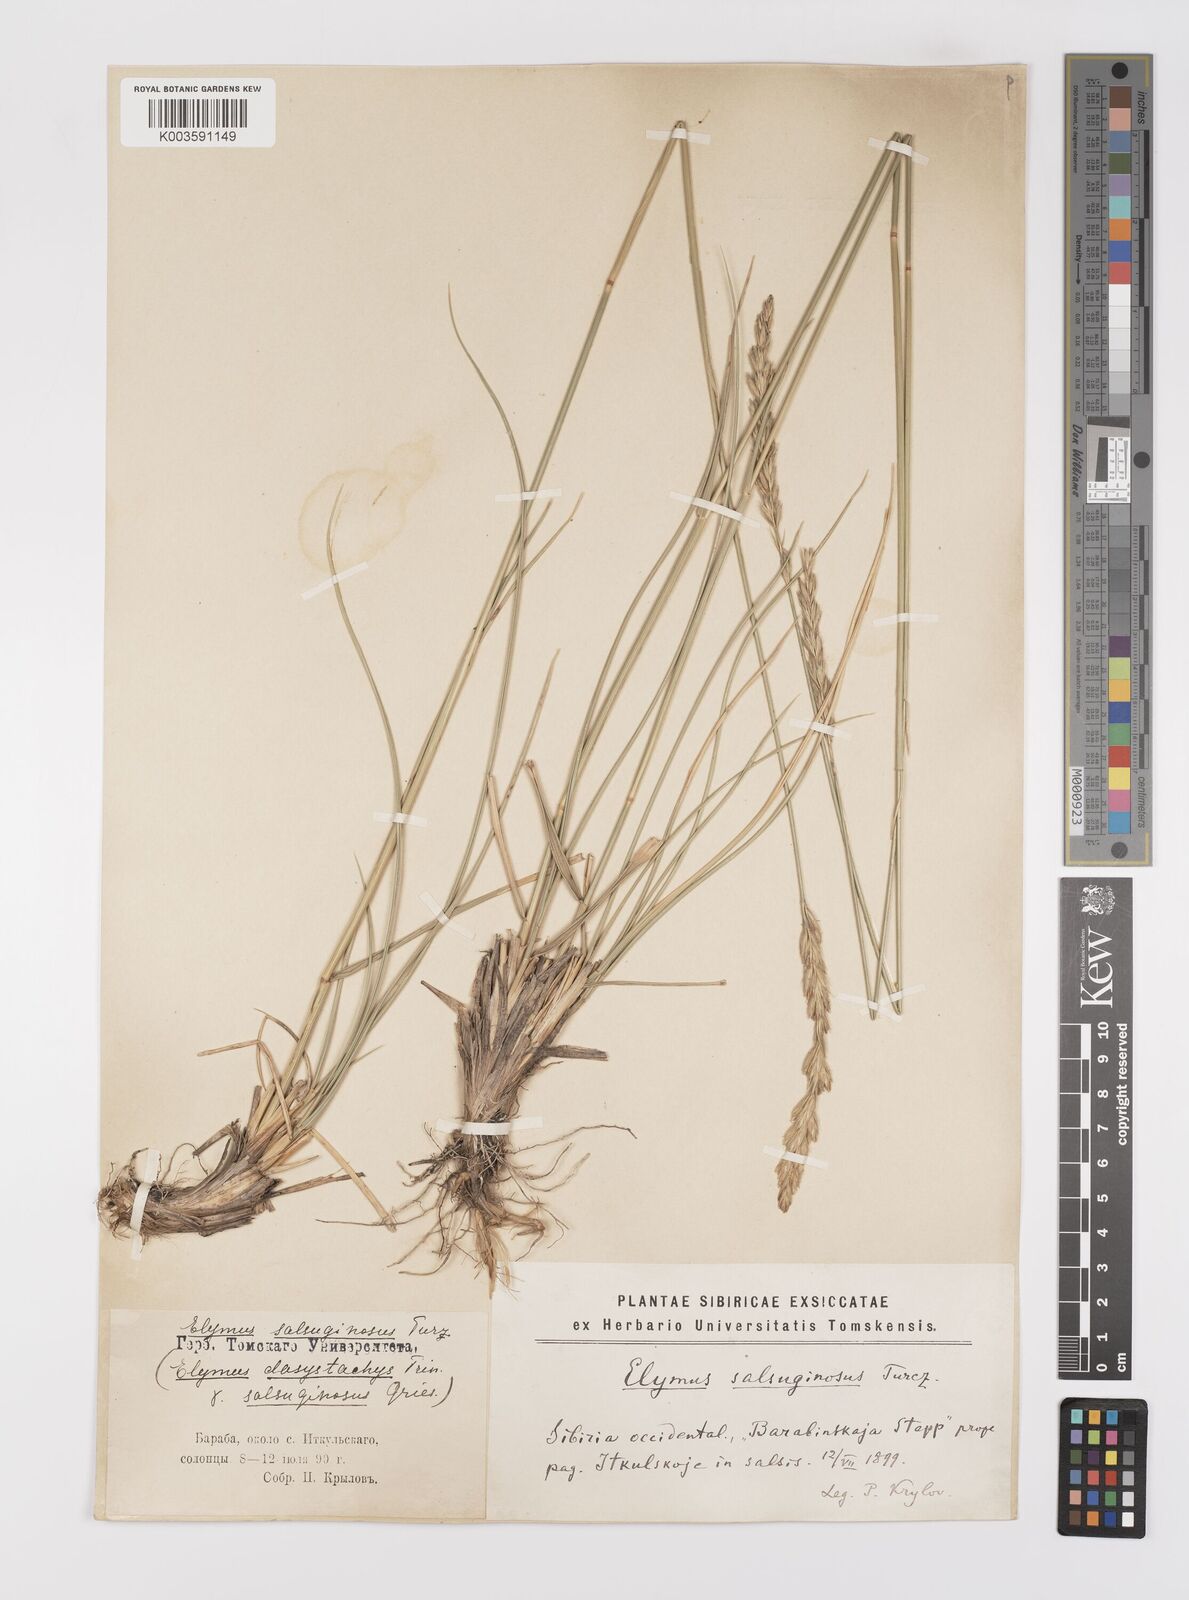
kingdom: Plantae
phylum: Tracheophyta
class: Liliopsida
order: Poales
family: Poaceae
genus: Leymus
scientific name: Leymus secalinus
